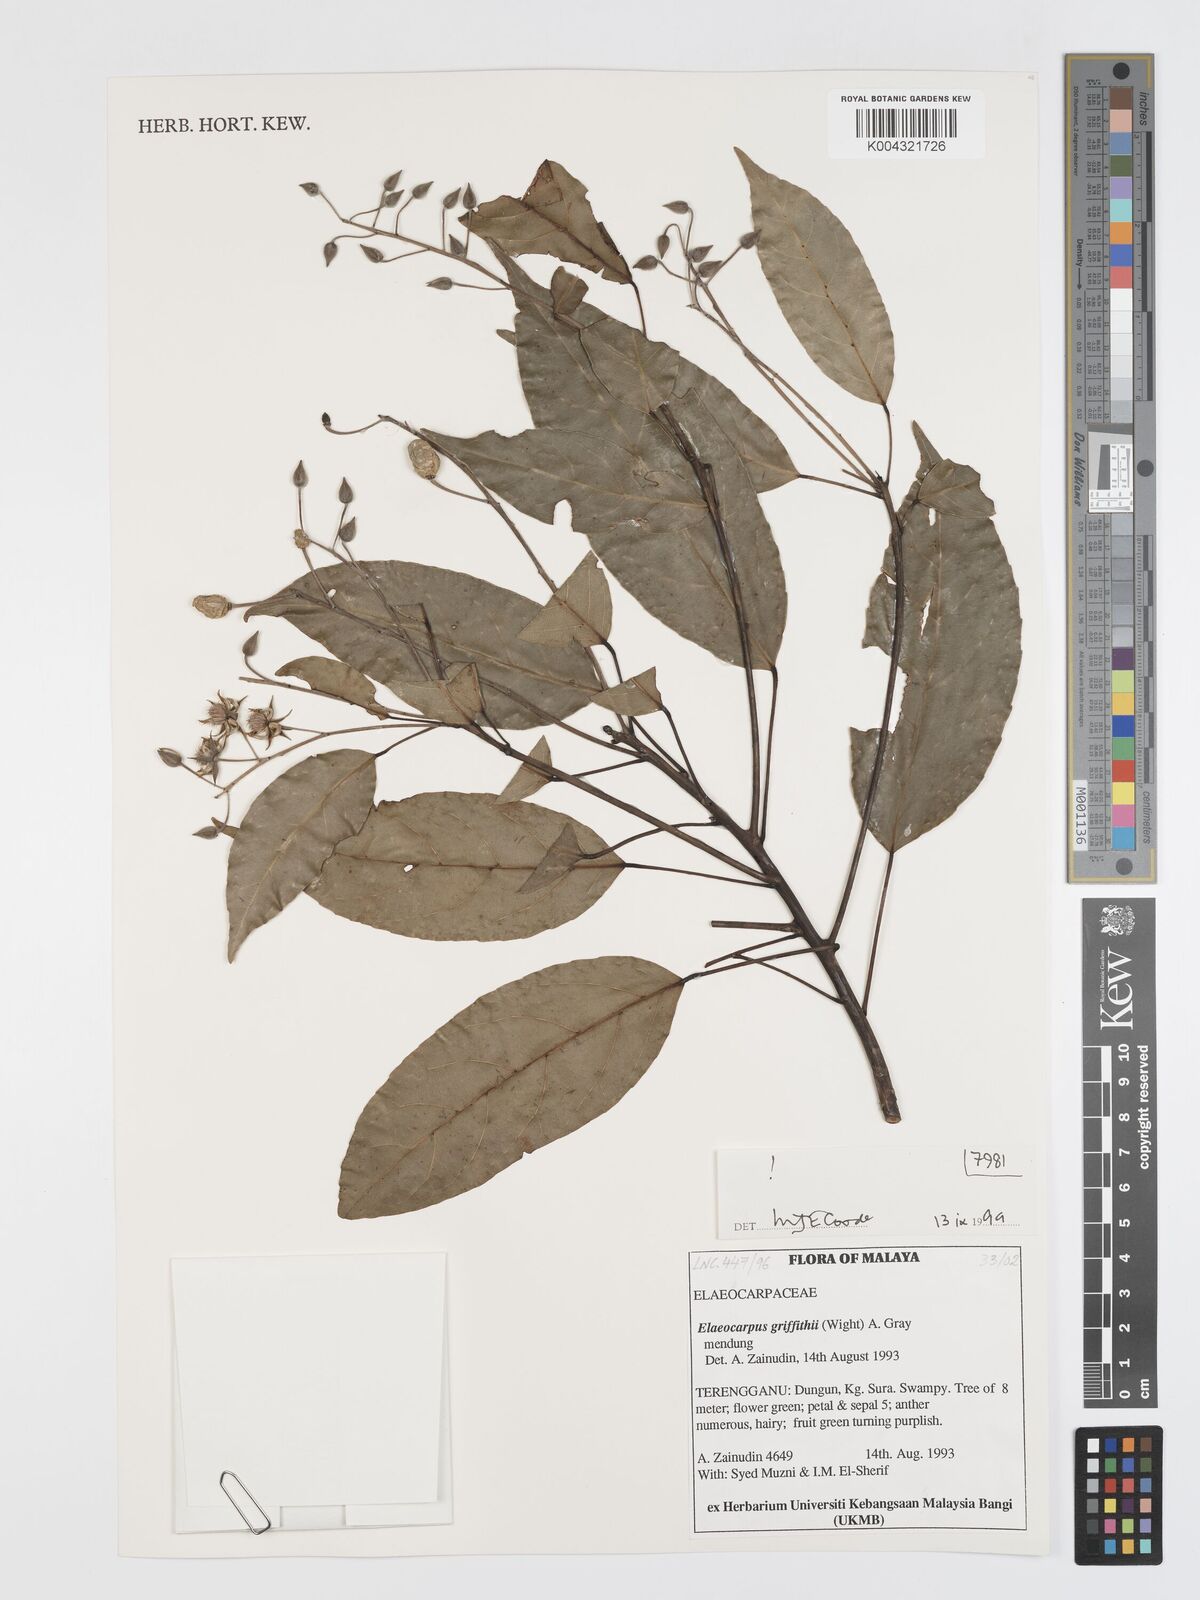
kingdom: Plantae
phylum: Tracheophyta
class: Magnoliopsida
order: Oxalidales
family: Elaeocarpaceae
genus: Elaeocarpus
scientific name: Elaeocarpus griffithii
